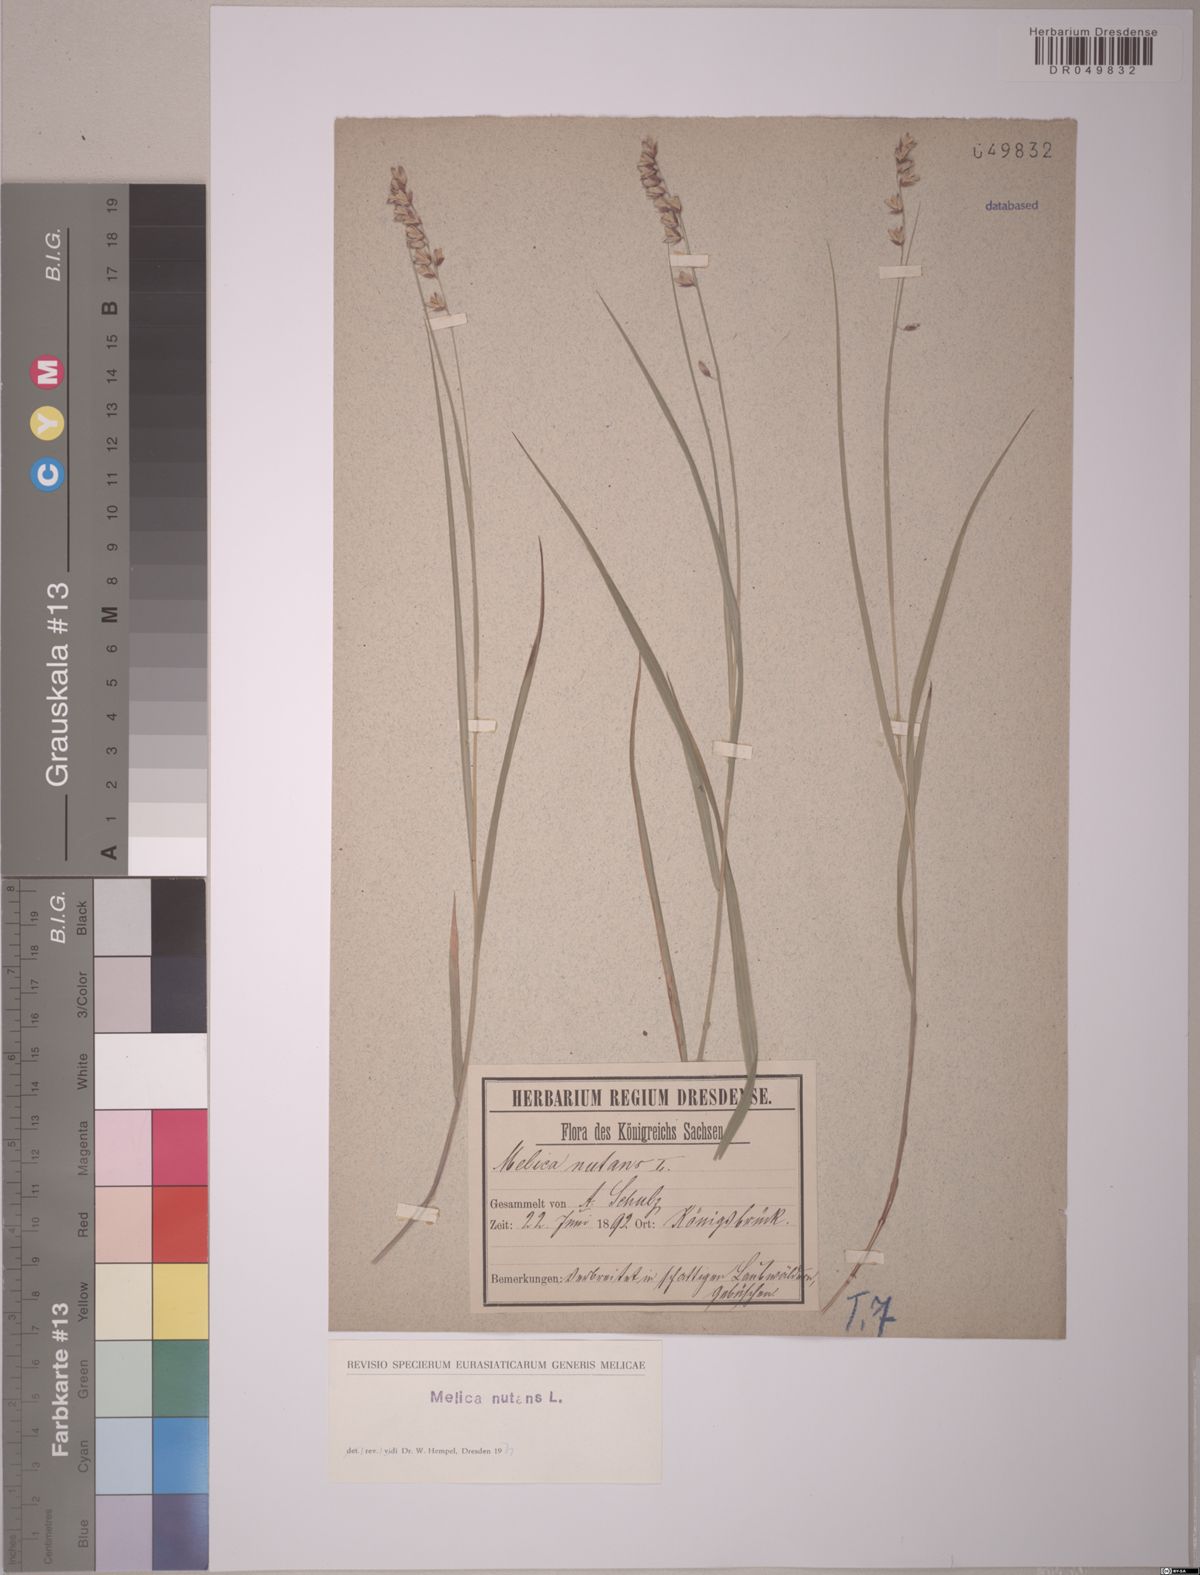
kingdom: Plantae
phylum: Tracheophyta
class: Liliopsida
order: Poales
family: Poaceae
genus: Melica
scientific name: Melica nutans
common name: Mountain melick
